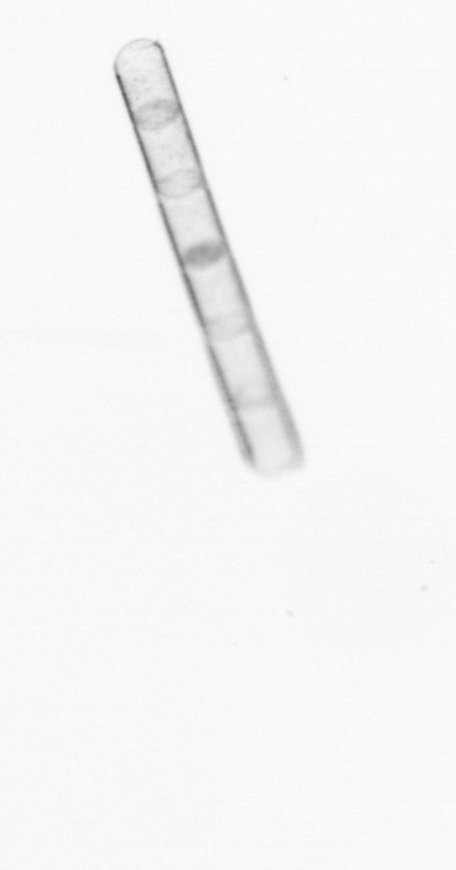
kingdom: Chromista
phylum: Ochrophyta
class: Bacillariophyceae
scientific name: Bacillariophyceae
